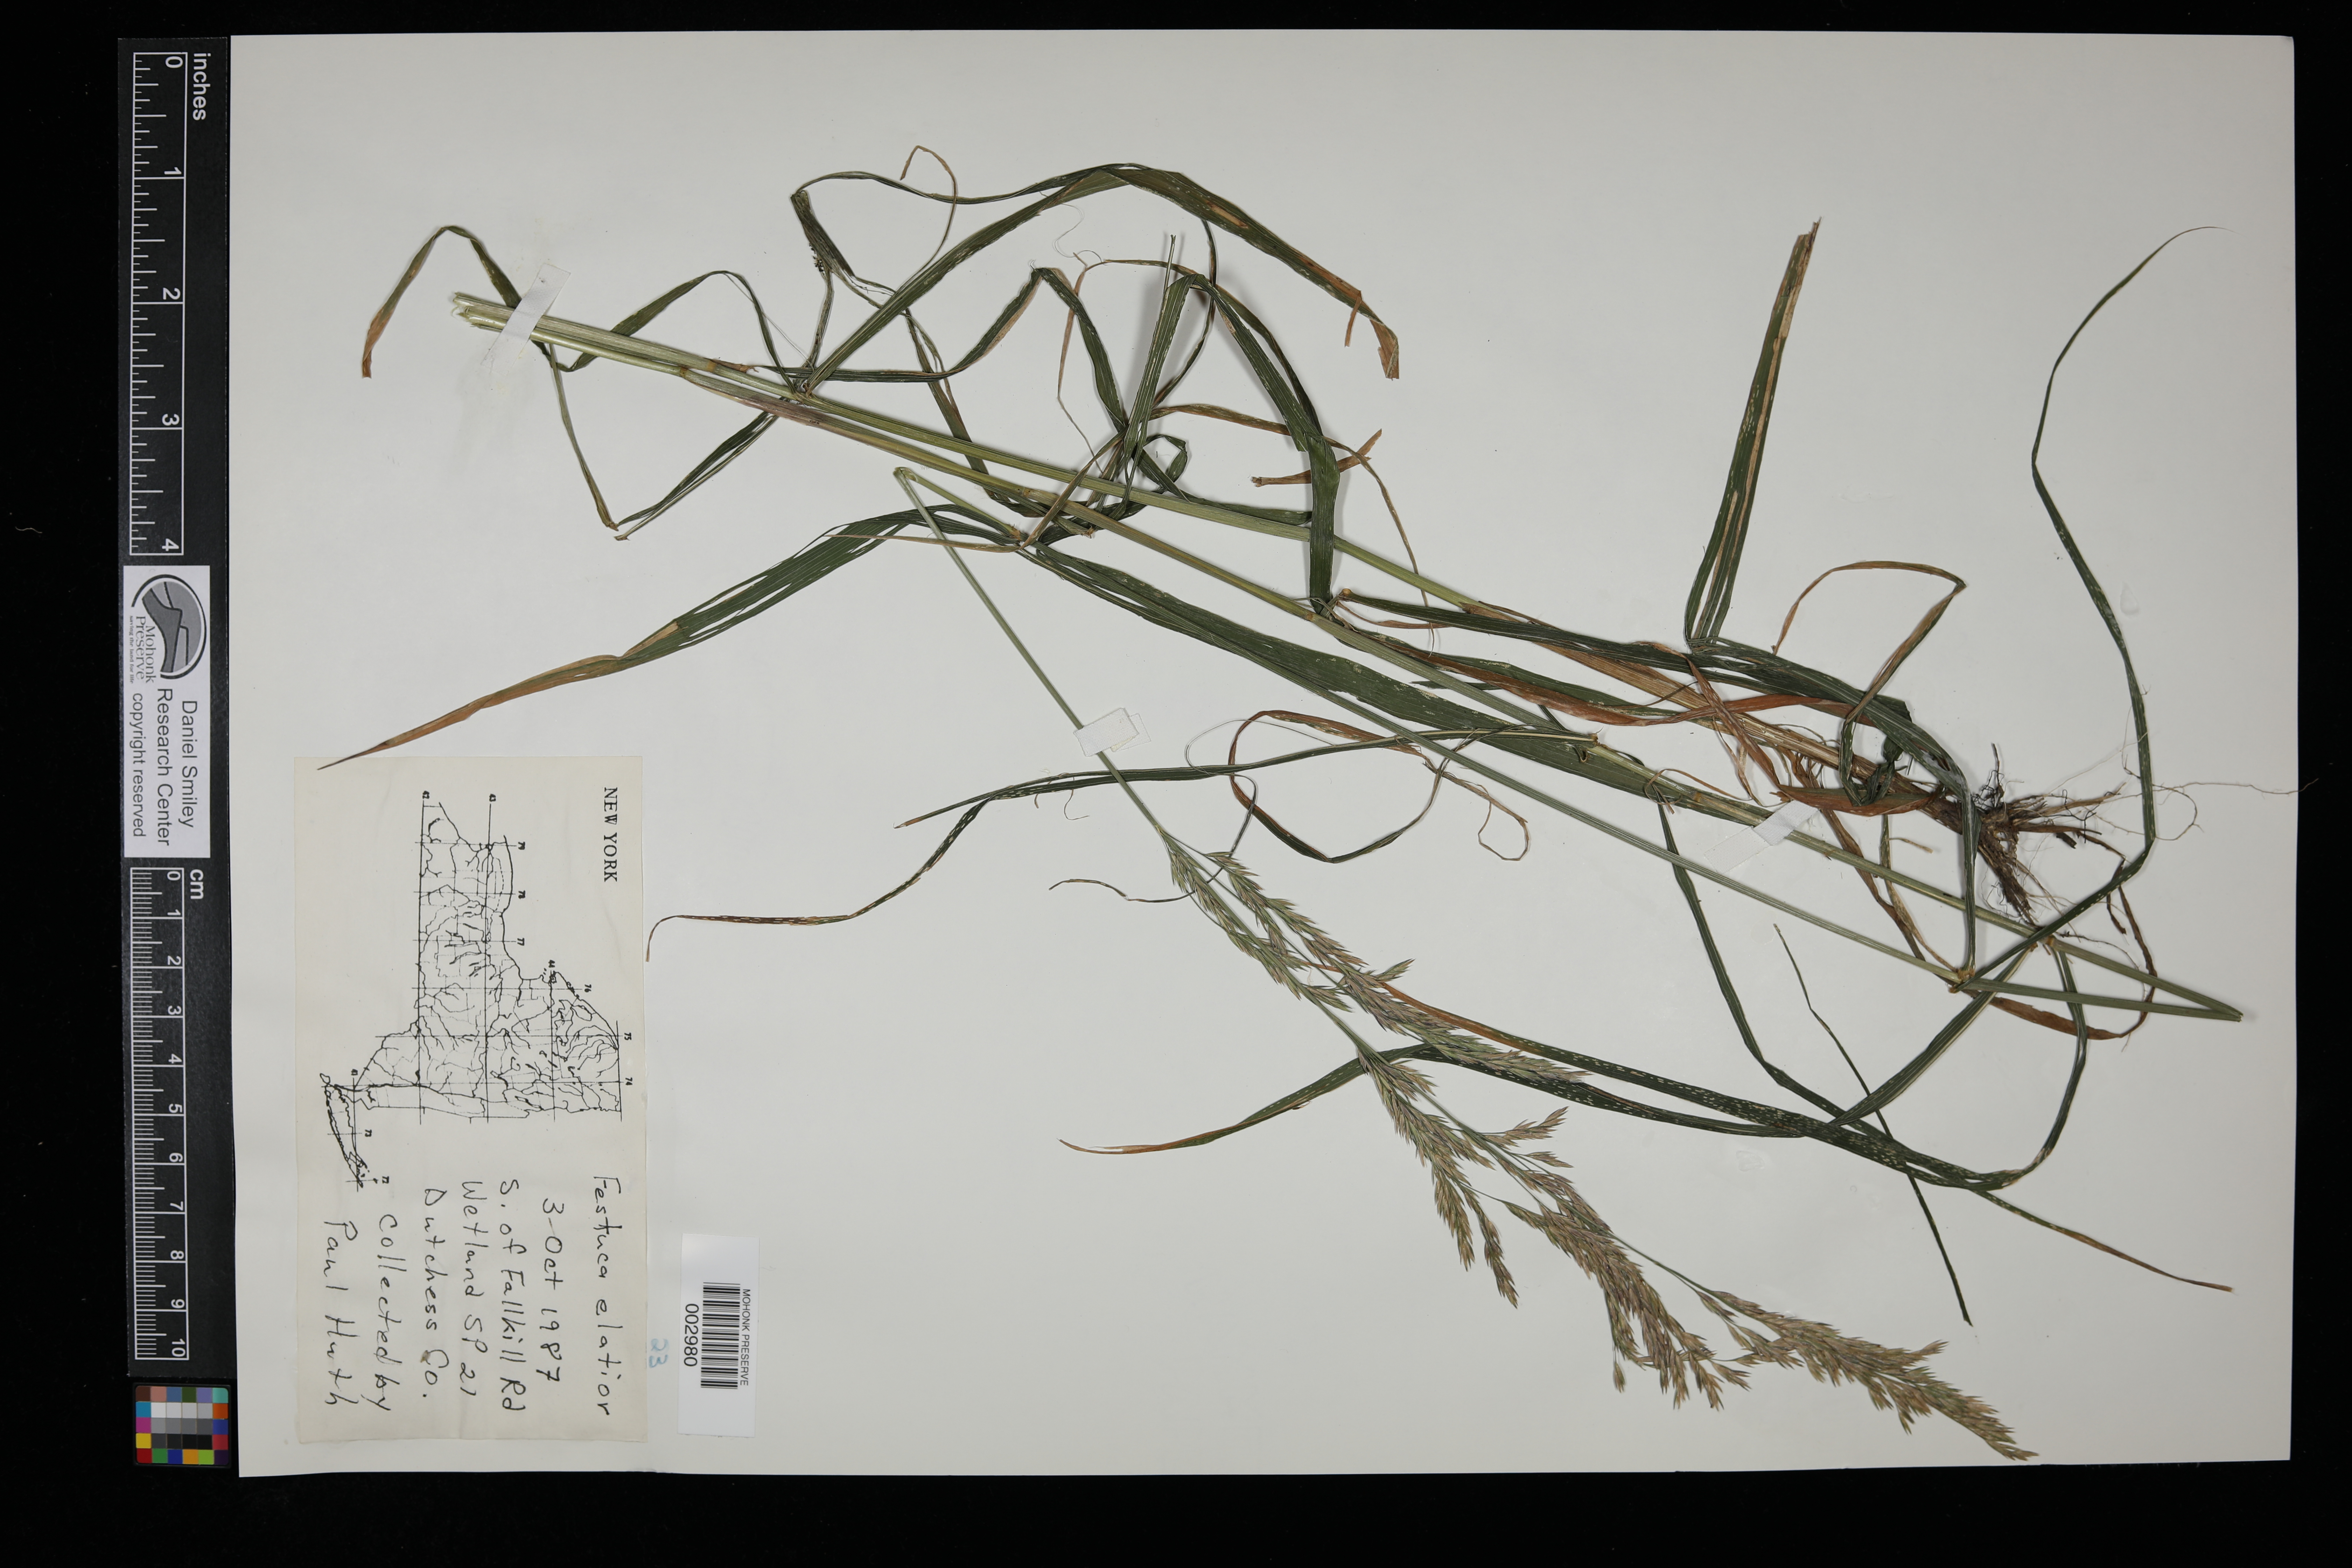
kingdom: Plantae
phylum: Tracheophyta
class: Liliopsida
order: Poales
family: Poaceae
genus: Lolium
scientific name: Lolium arundinaceum
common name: Reed fescue
